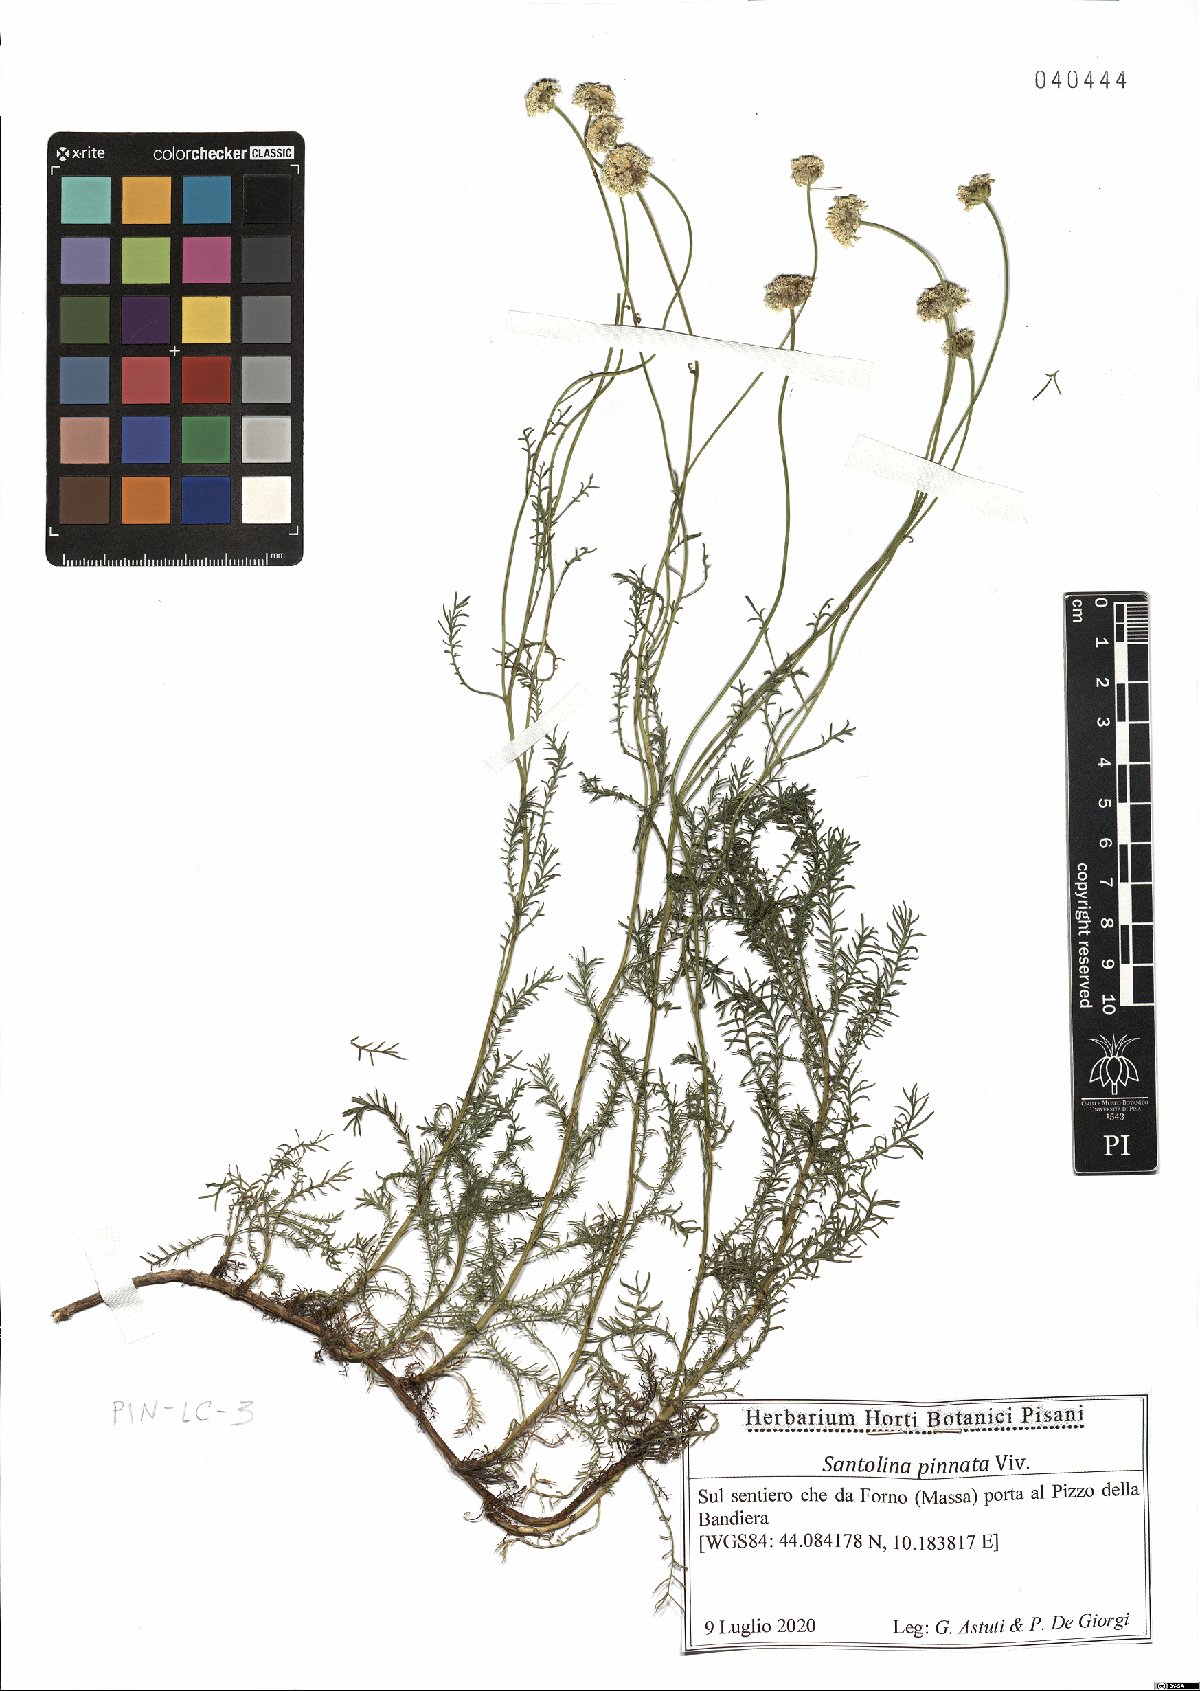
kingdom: Plantae
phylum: Tracheophyta
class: Magnoliopsida
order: Asterales
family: Asteraceae
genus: Santolina
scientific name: Santolina pinnata
